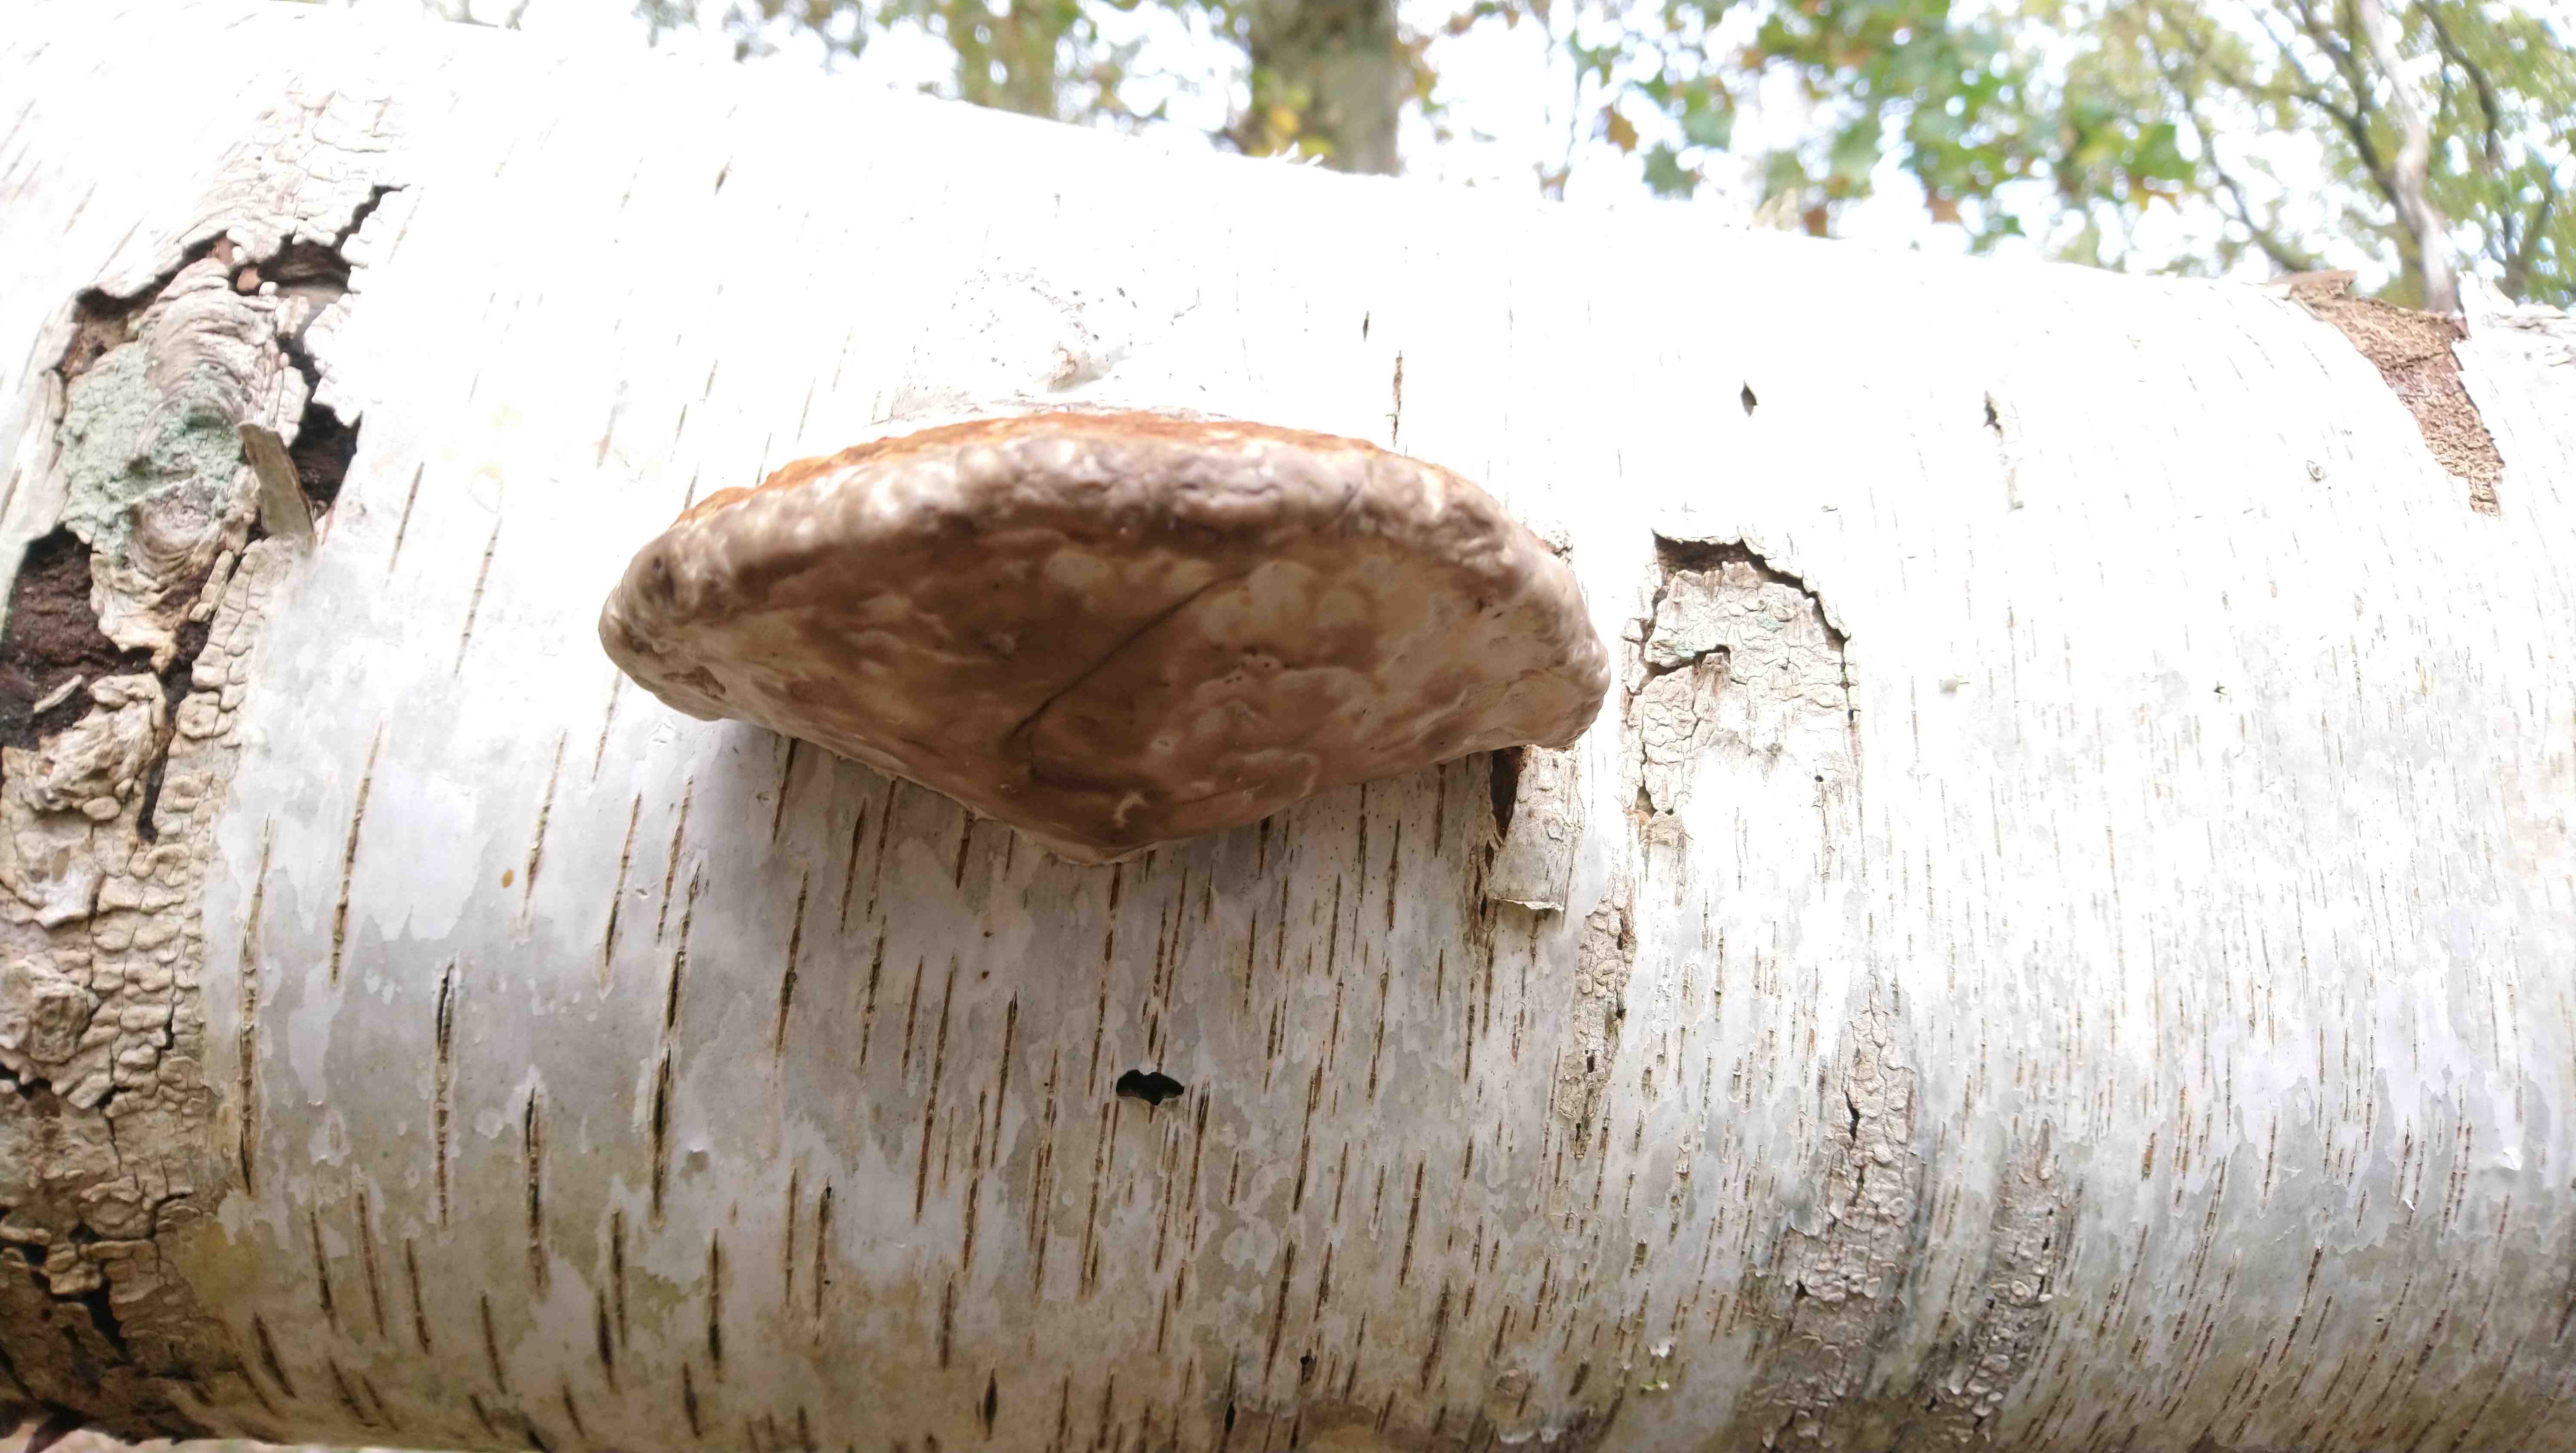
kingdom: Fungi
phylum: Basidiomycota
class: Agaricomycetes
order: Polyporales
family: Polyporaceae
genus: Fomes
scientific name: Fomes fomentarius
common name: tøndersvamp
